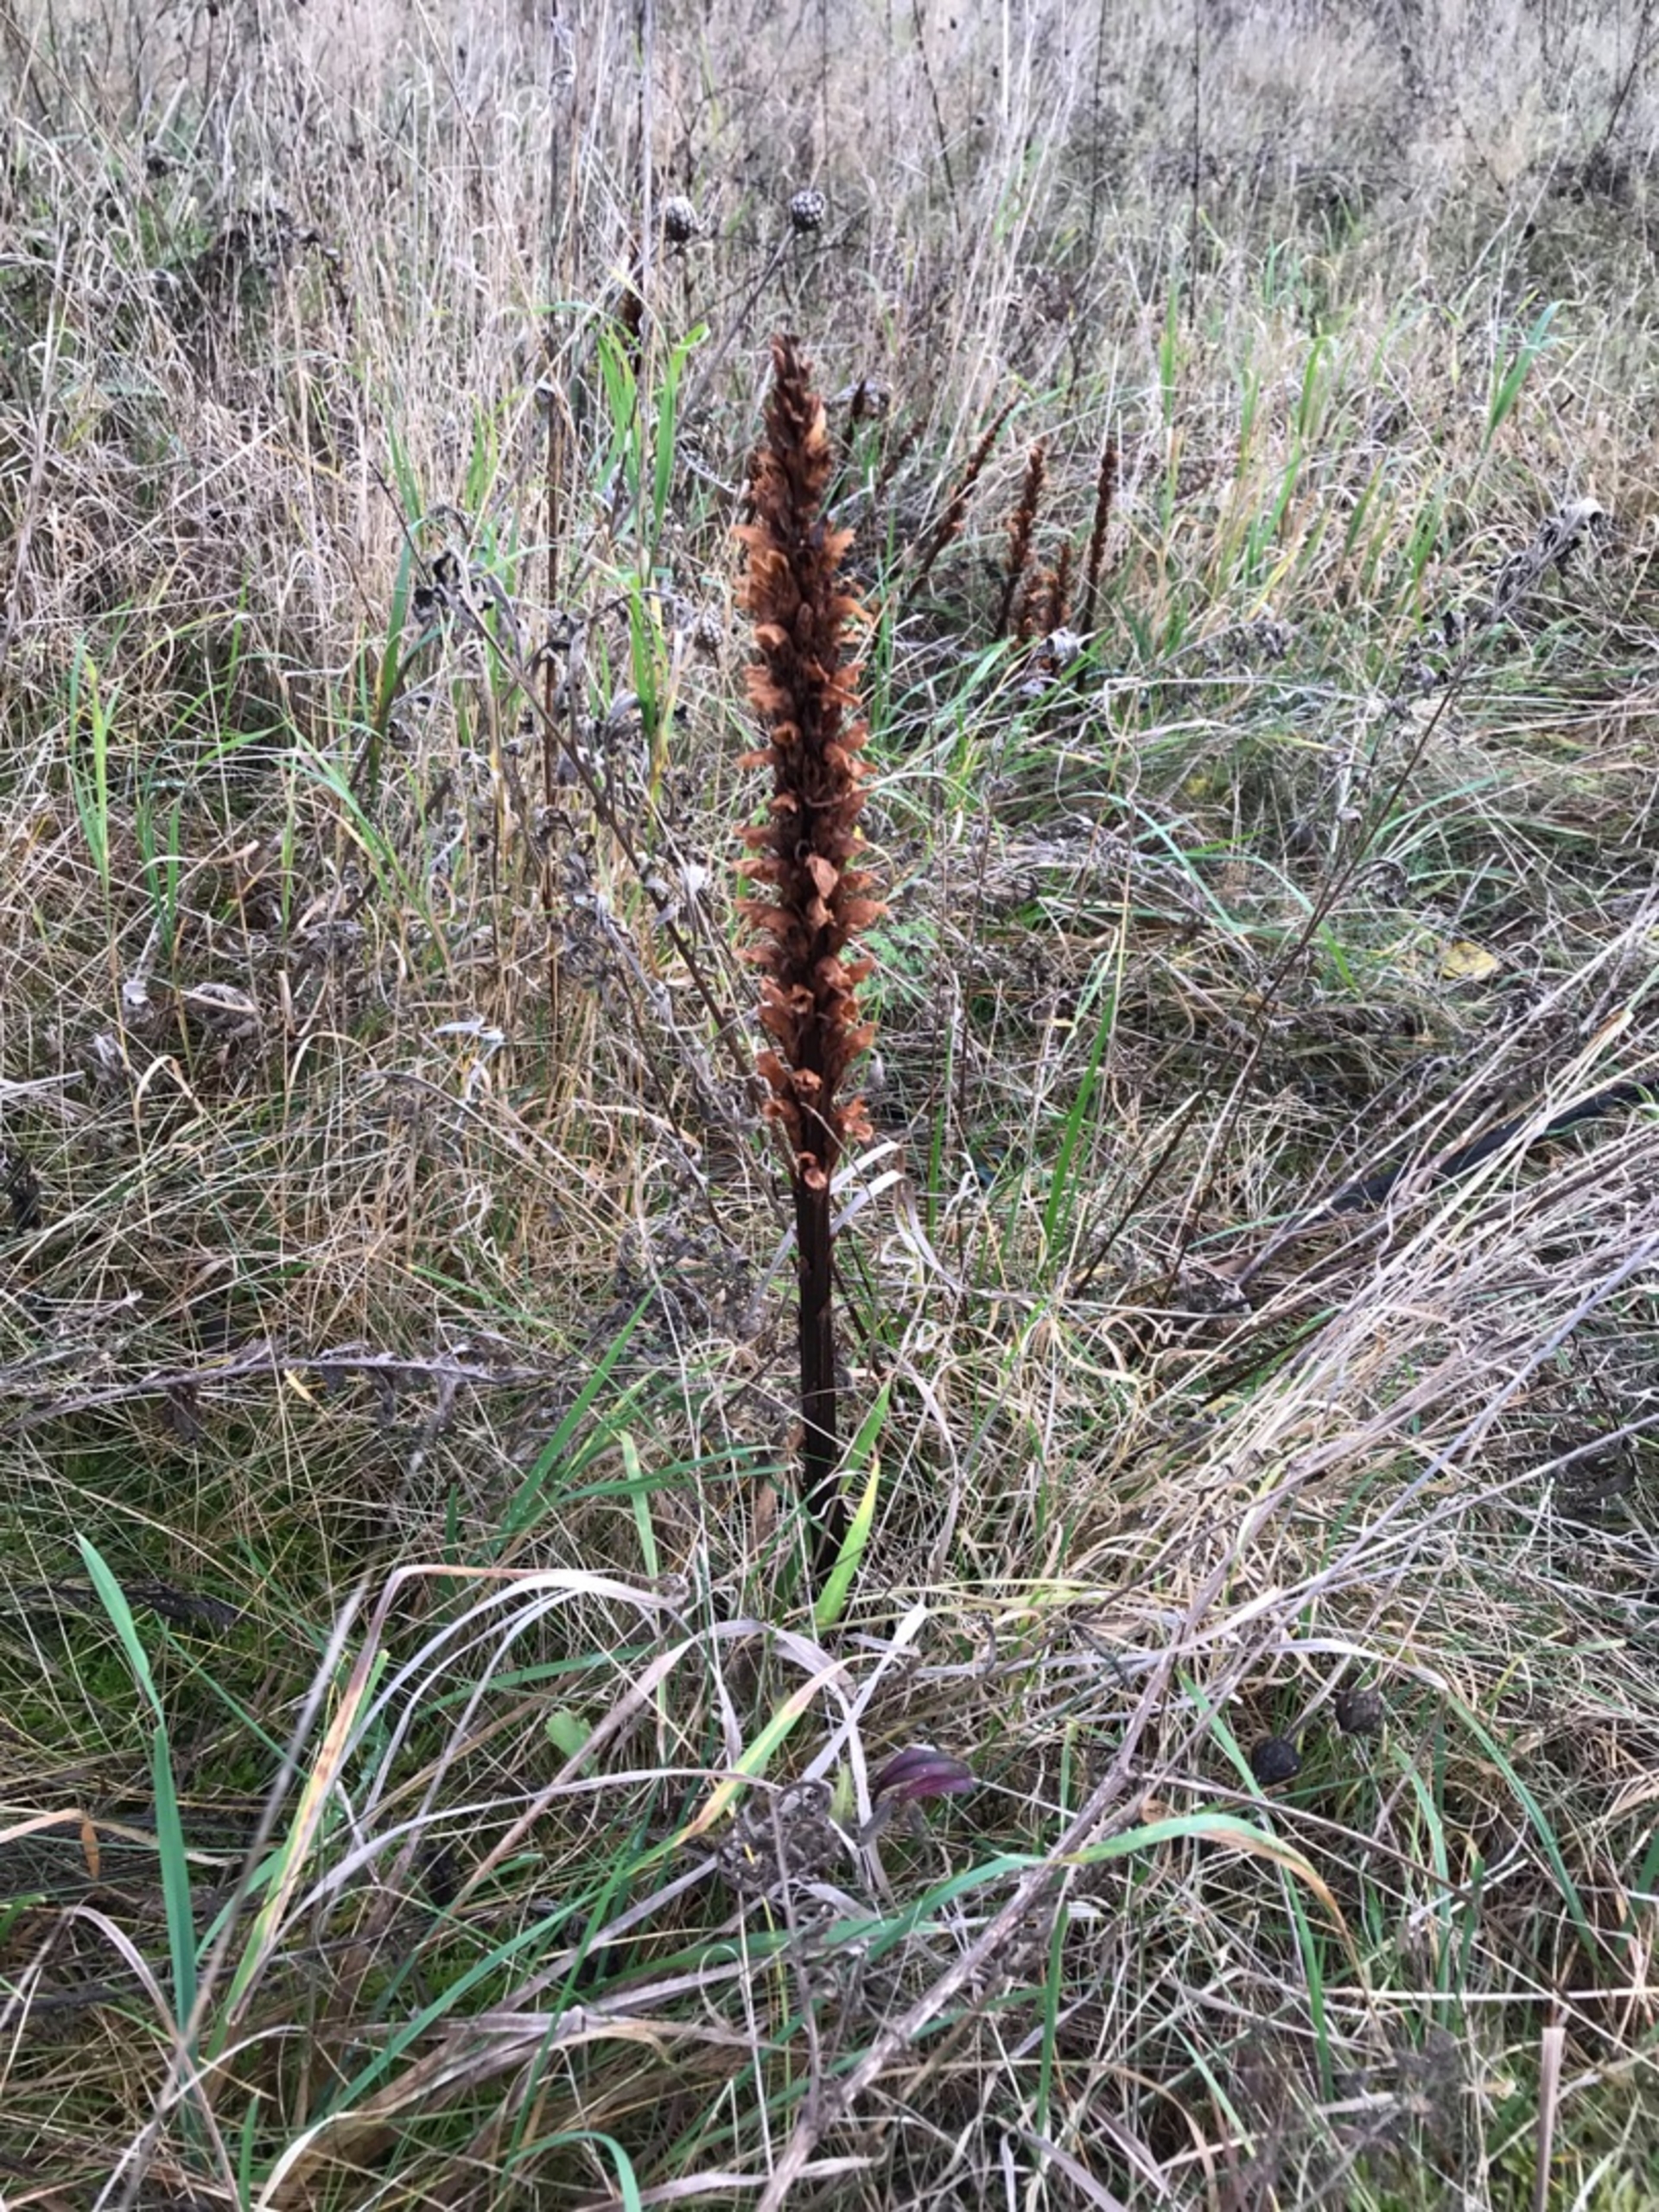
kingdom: Plantae
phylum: Tracheophyta
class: Magnoliopsida
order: Lamiales
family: Orobanchaceae
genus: Orobanche
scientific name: Orobanche elatior
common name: Stor gyvelkvæler
